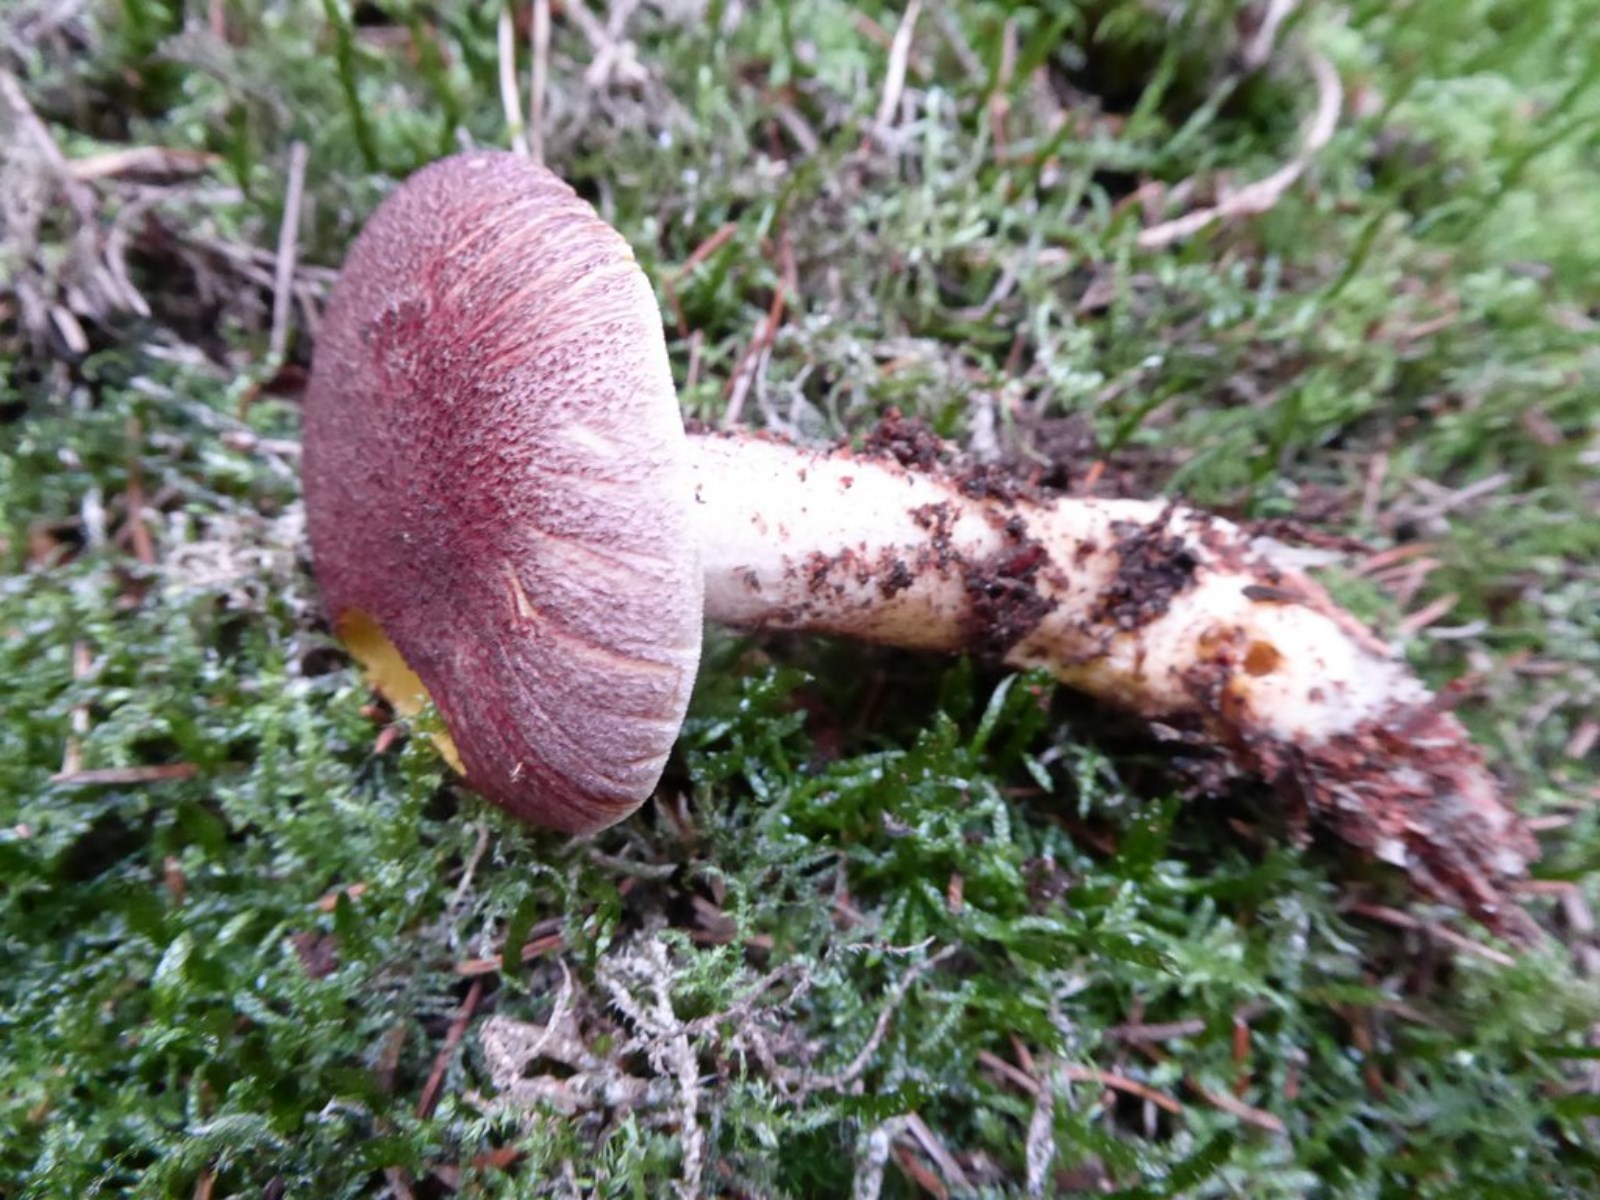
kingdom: Fungi
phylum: Basidiomycota
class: Agaricomycetes
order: Agaricales
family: Tricholomataceae
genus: Tricholomopsis
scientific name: Tricholomopsis rutilans
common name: purpur-væbnerhat
